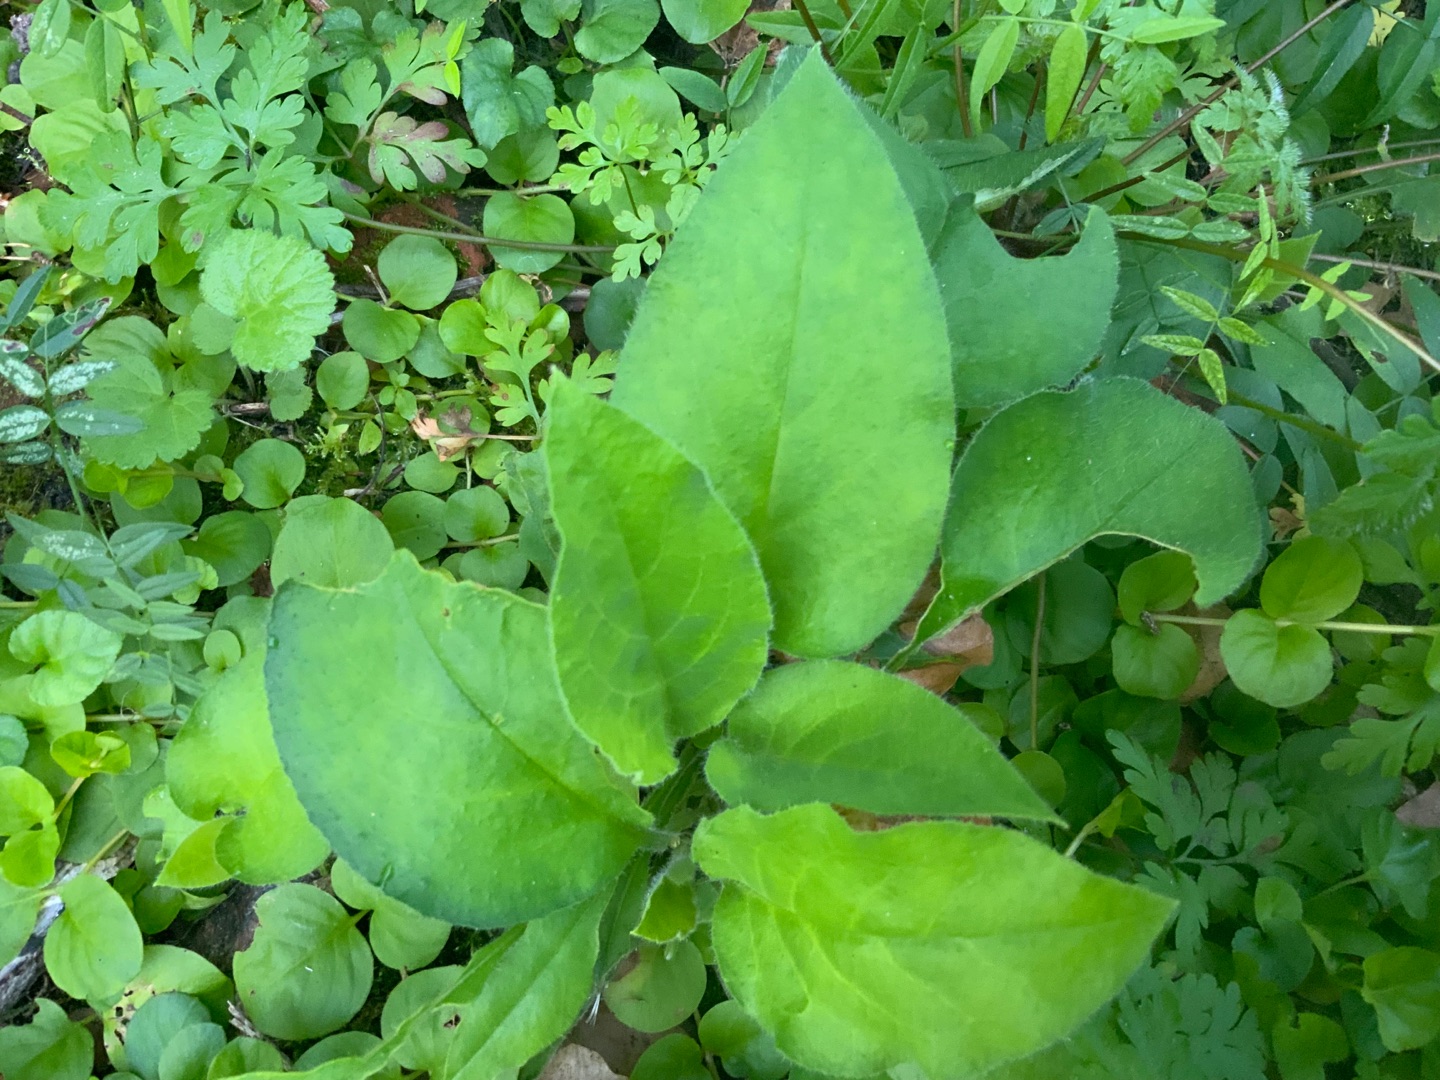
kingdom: Plantae
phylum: Tracheophyta
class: Magnoliopsida
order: Boraginales
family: Boraginaceae
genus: Pulmonaria
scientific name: Pulmonaria obscura
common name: Almindelig lungeurt
